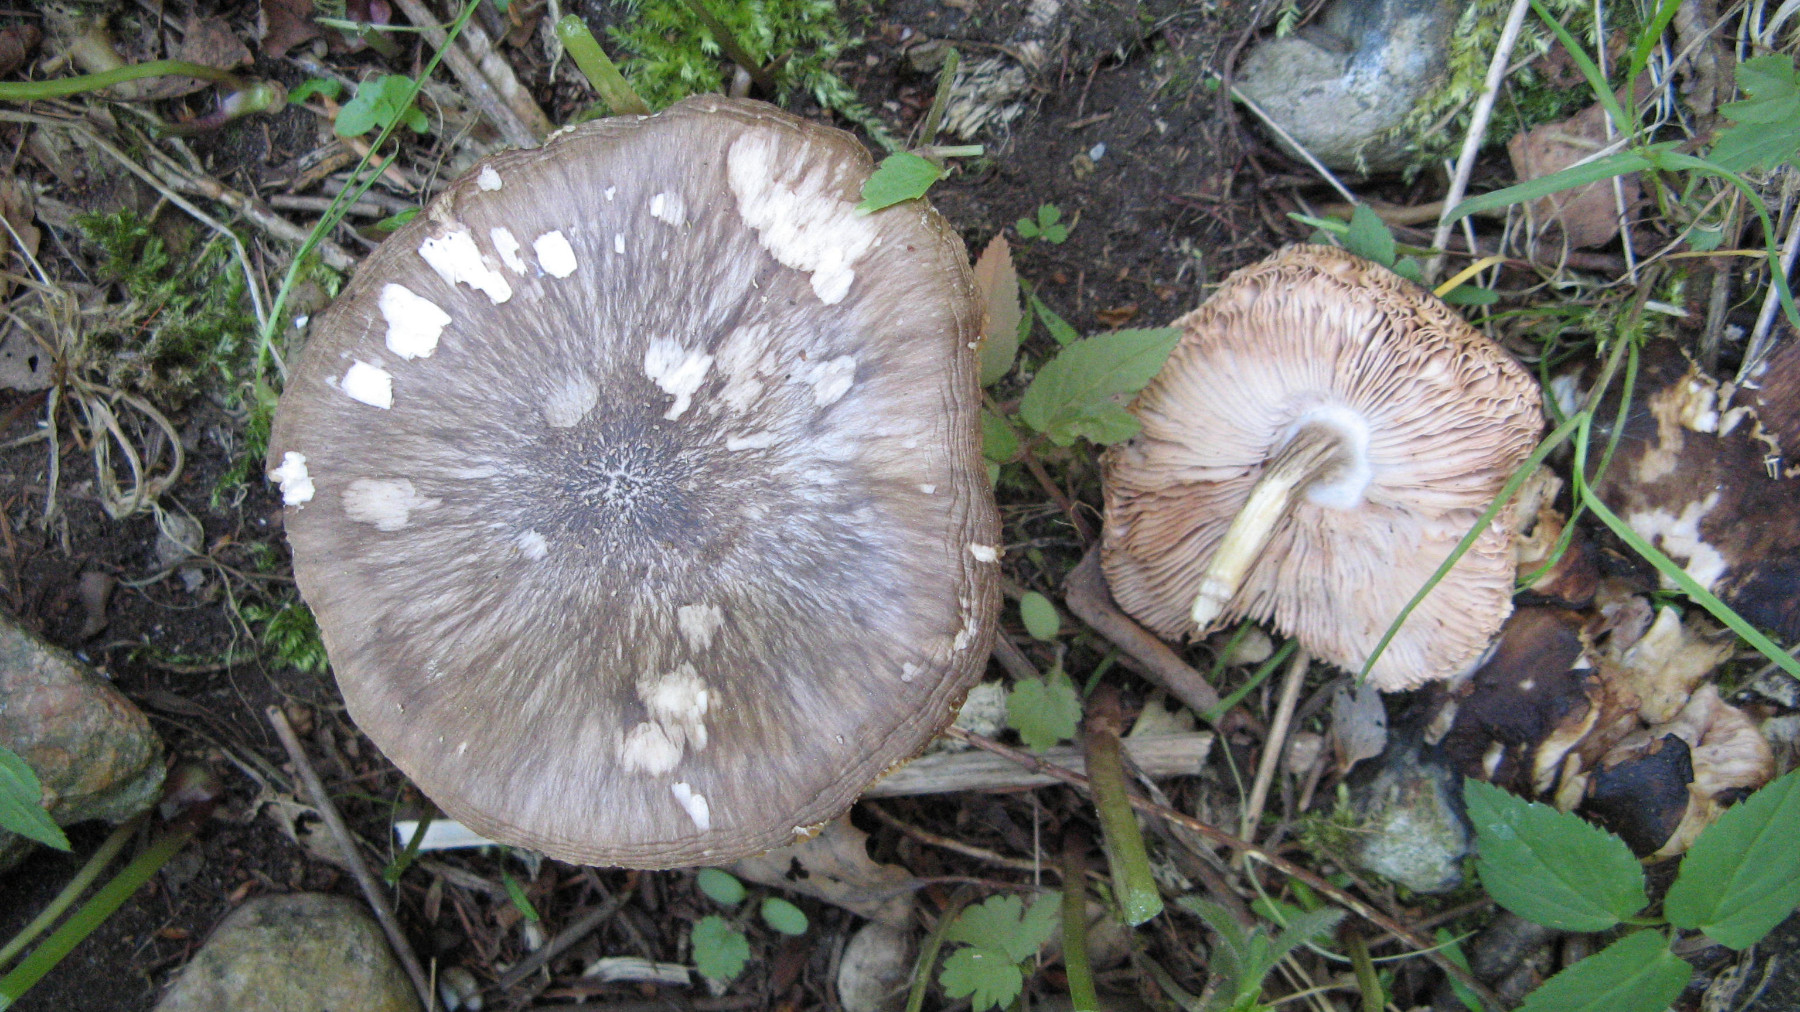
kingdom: Fungi
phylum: Basidiomycota
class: Agaricomycetes
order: Agaricales
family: Pluteaceae
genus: Pluteus
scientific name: Pluteus cervinus
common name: sodfarvet skærmhat
